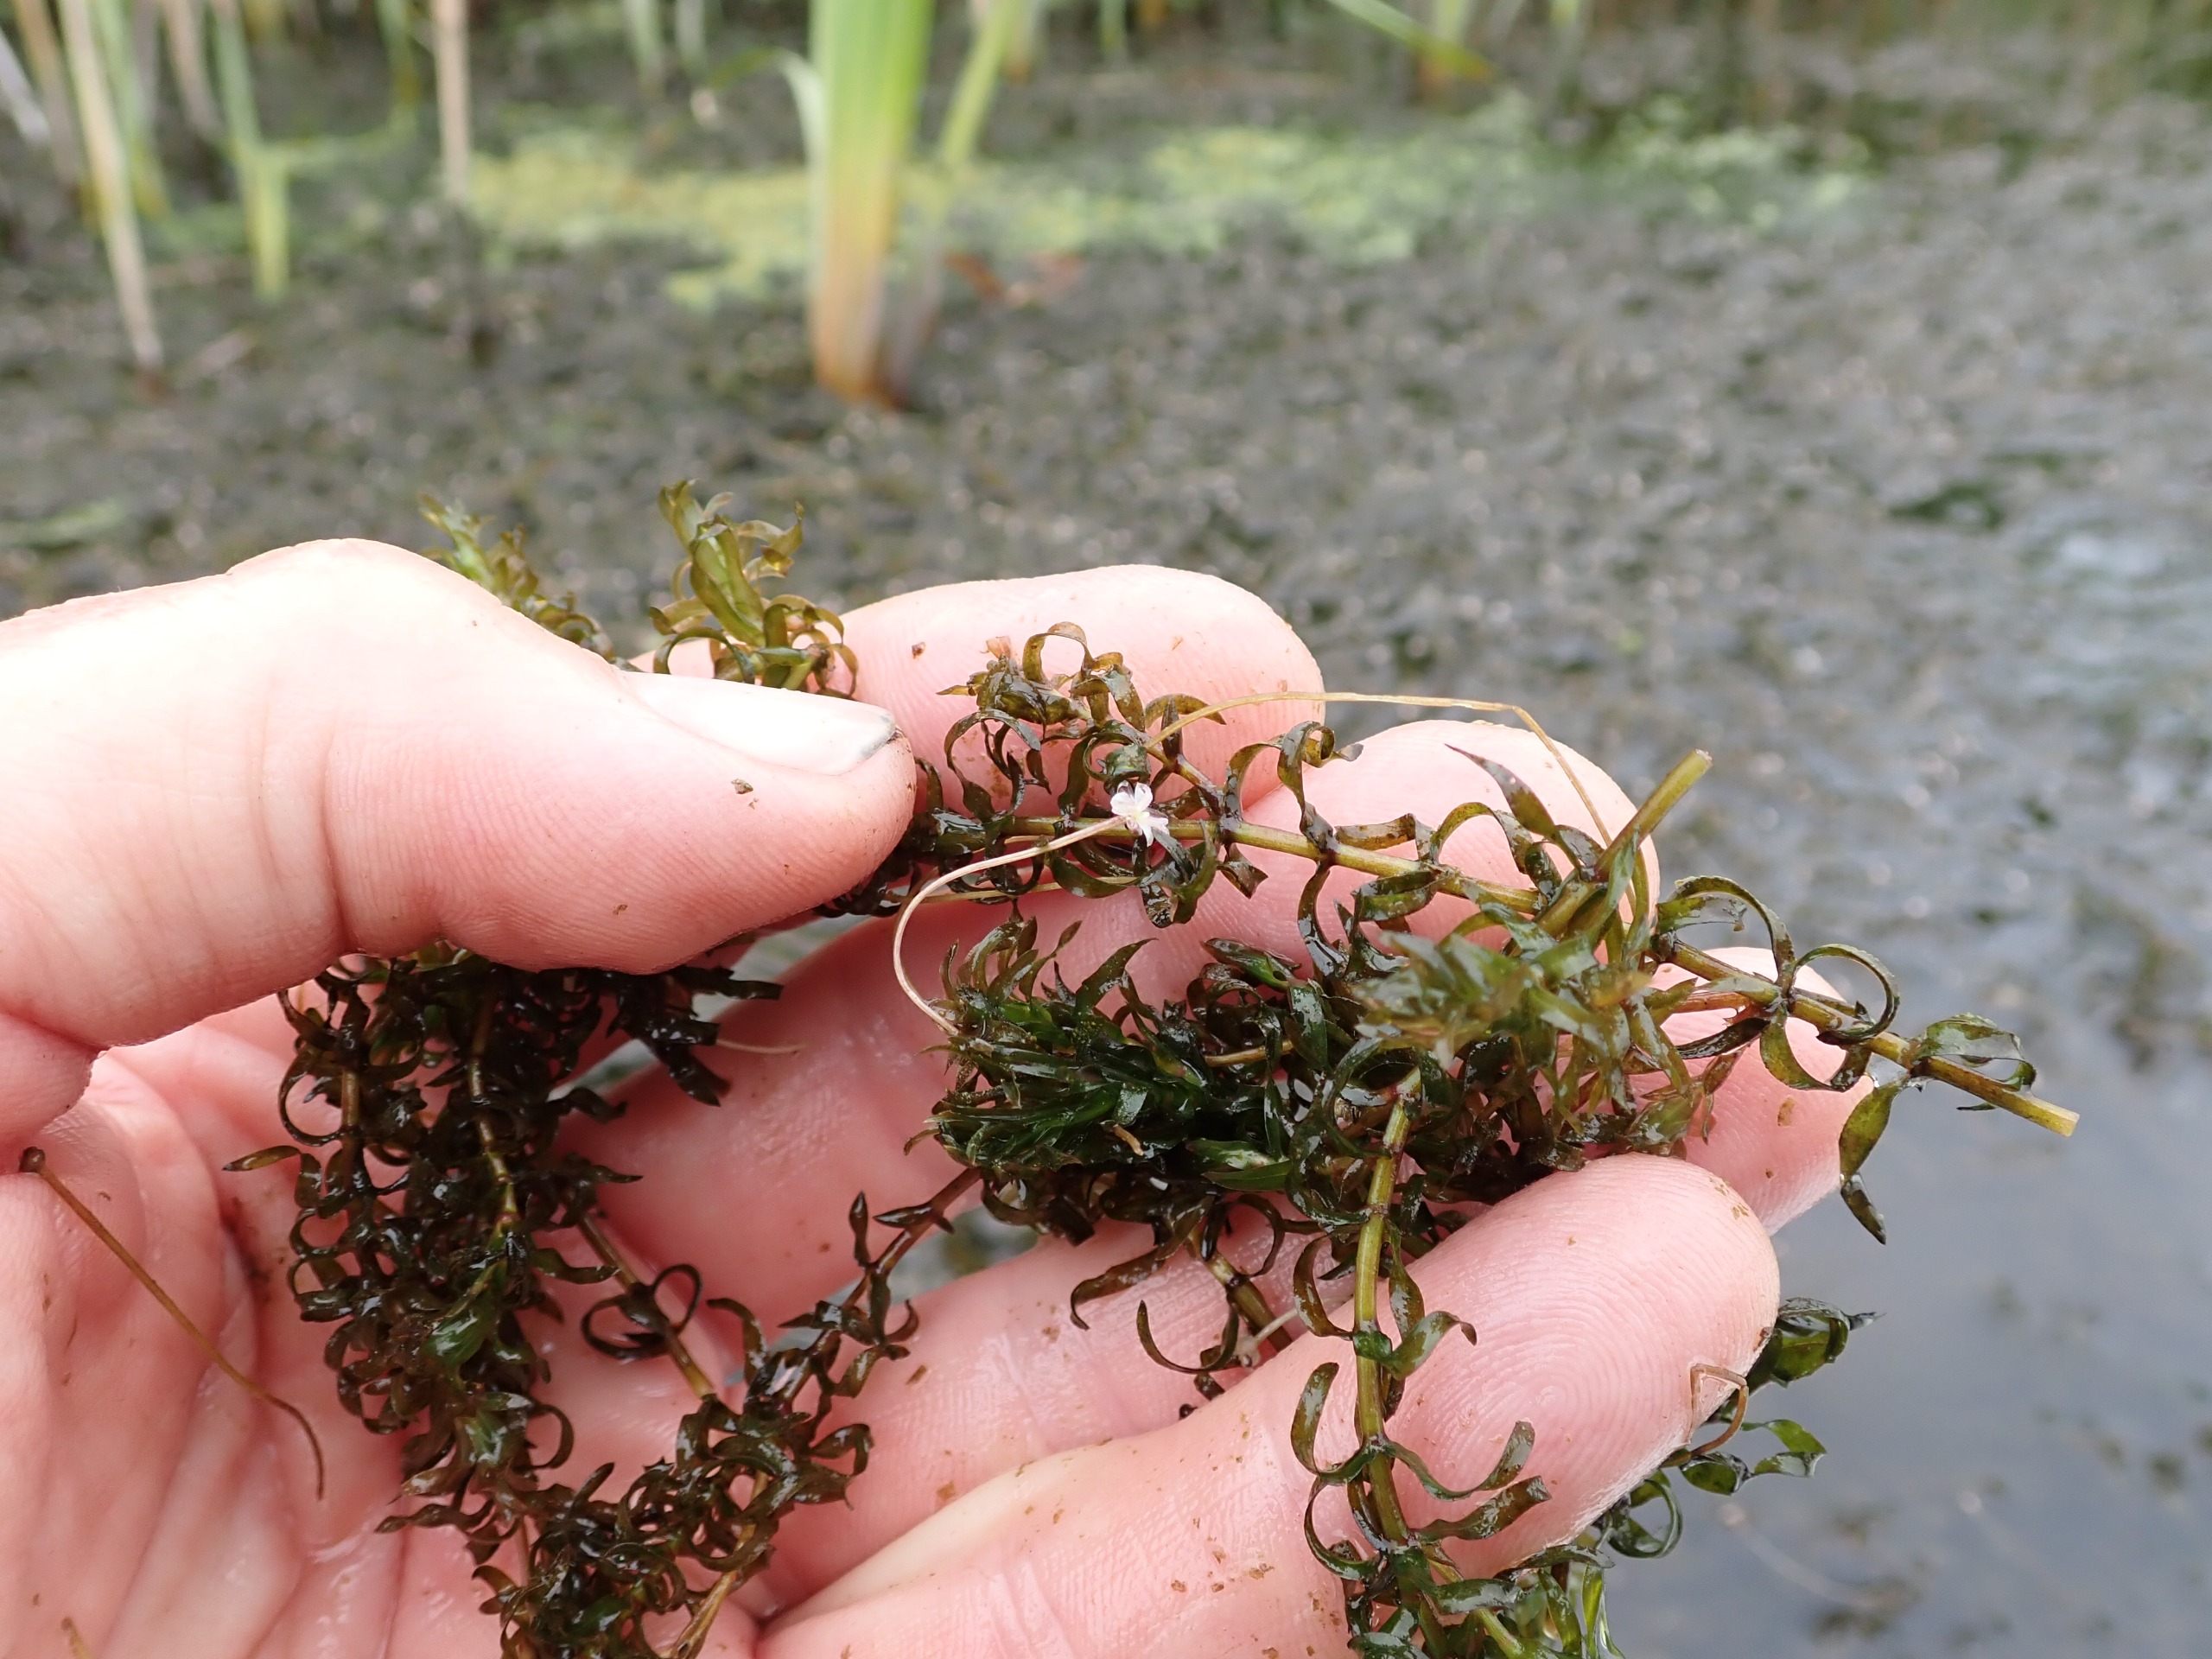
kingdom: Plantae
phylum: Tracheophyta
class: Liliopsida
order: Alismatales
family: Hydrocharitaceae
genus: Elodea
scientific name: Elodea nuttallii
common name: Smalbladet vandpest
